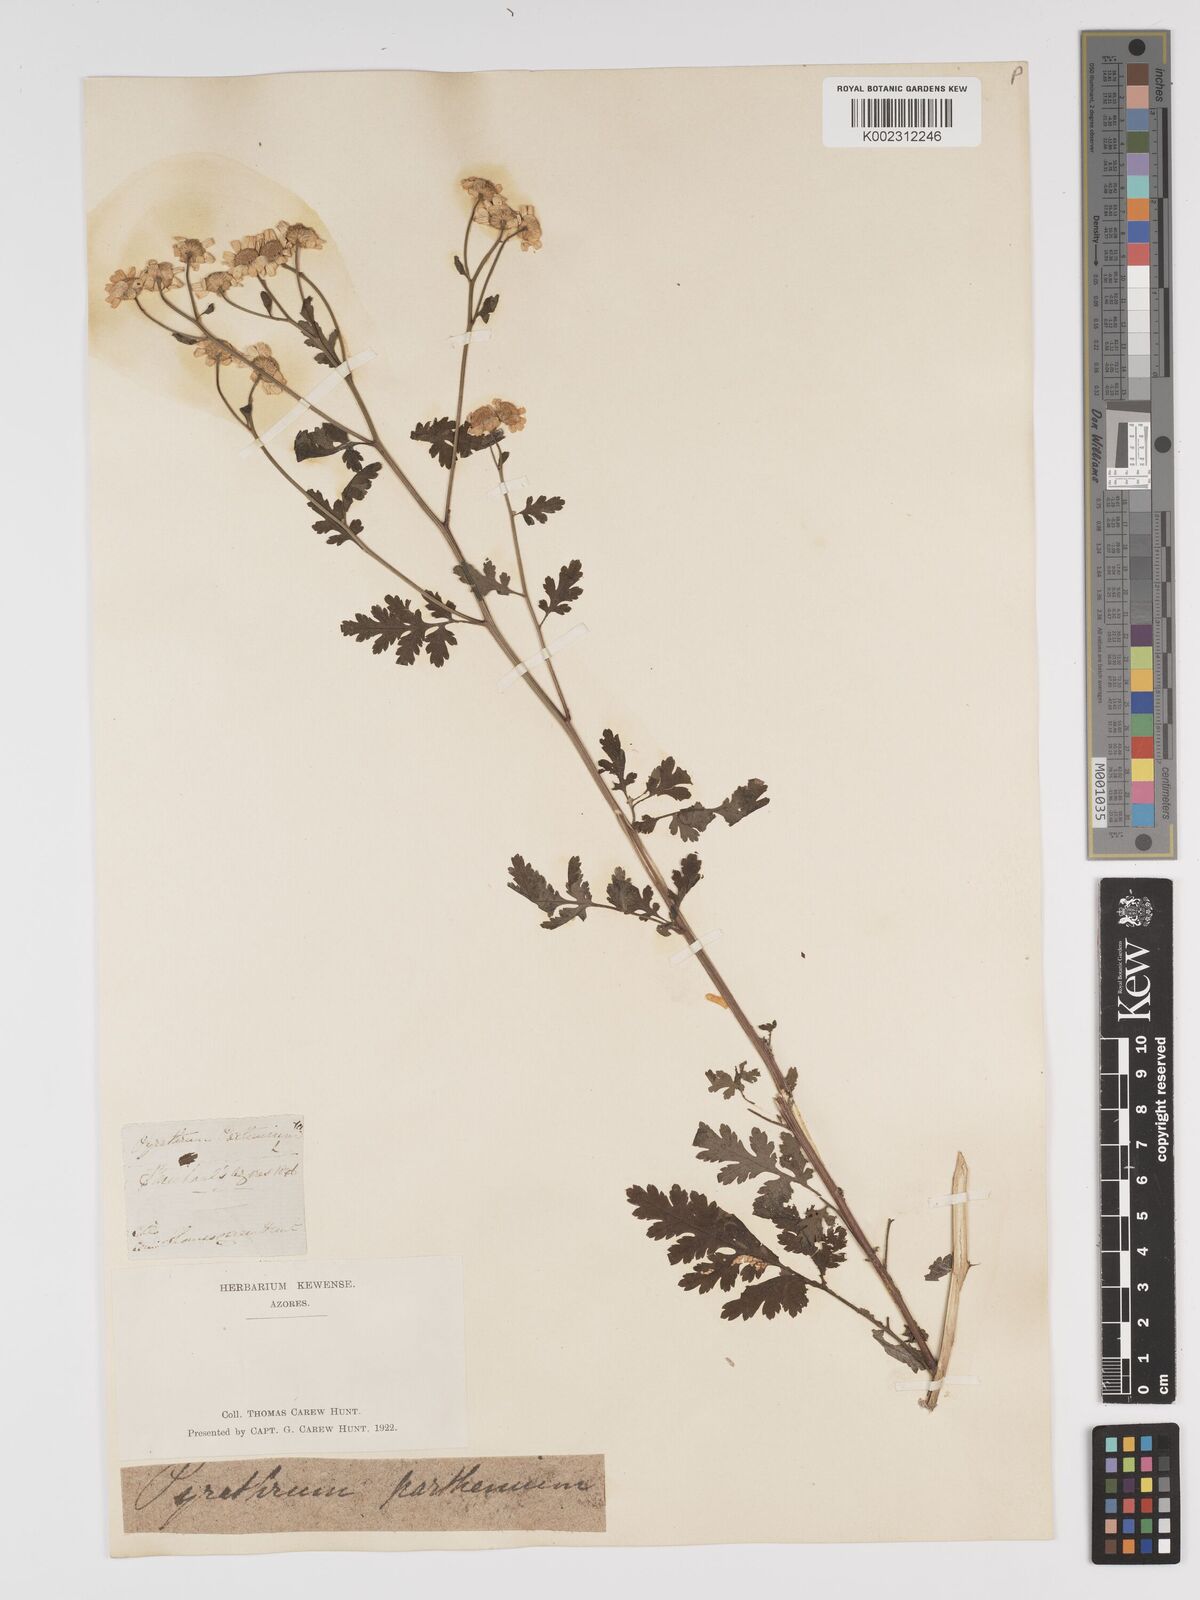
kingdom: Plantae
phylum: Tracheophyta
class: Magnoliopsida
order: Asterales
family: Asteraceae
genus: Tanacetum
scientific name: Tanacetum parthenium
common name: Feverfew
